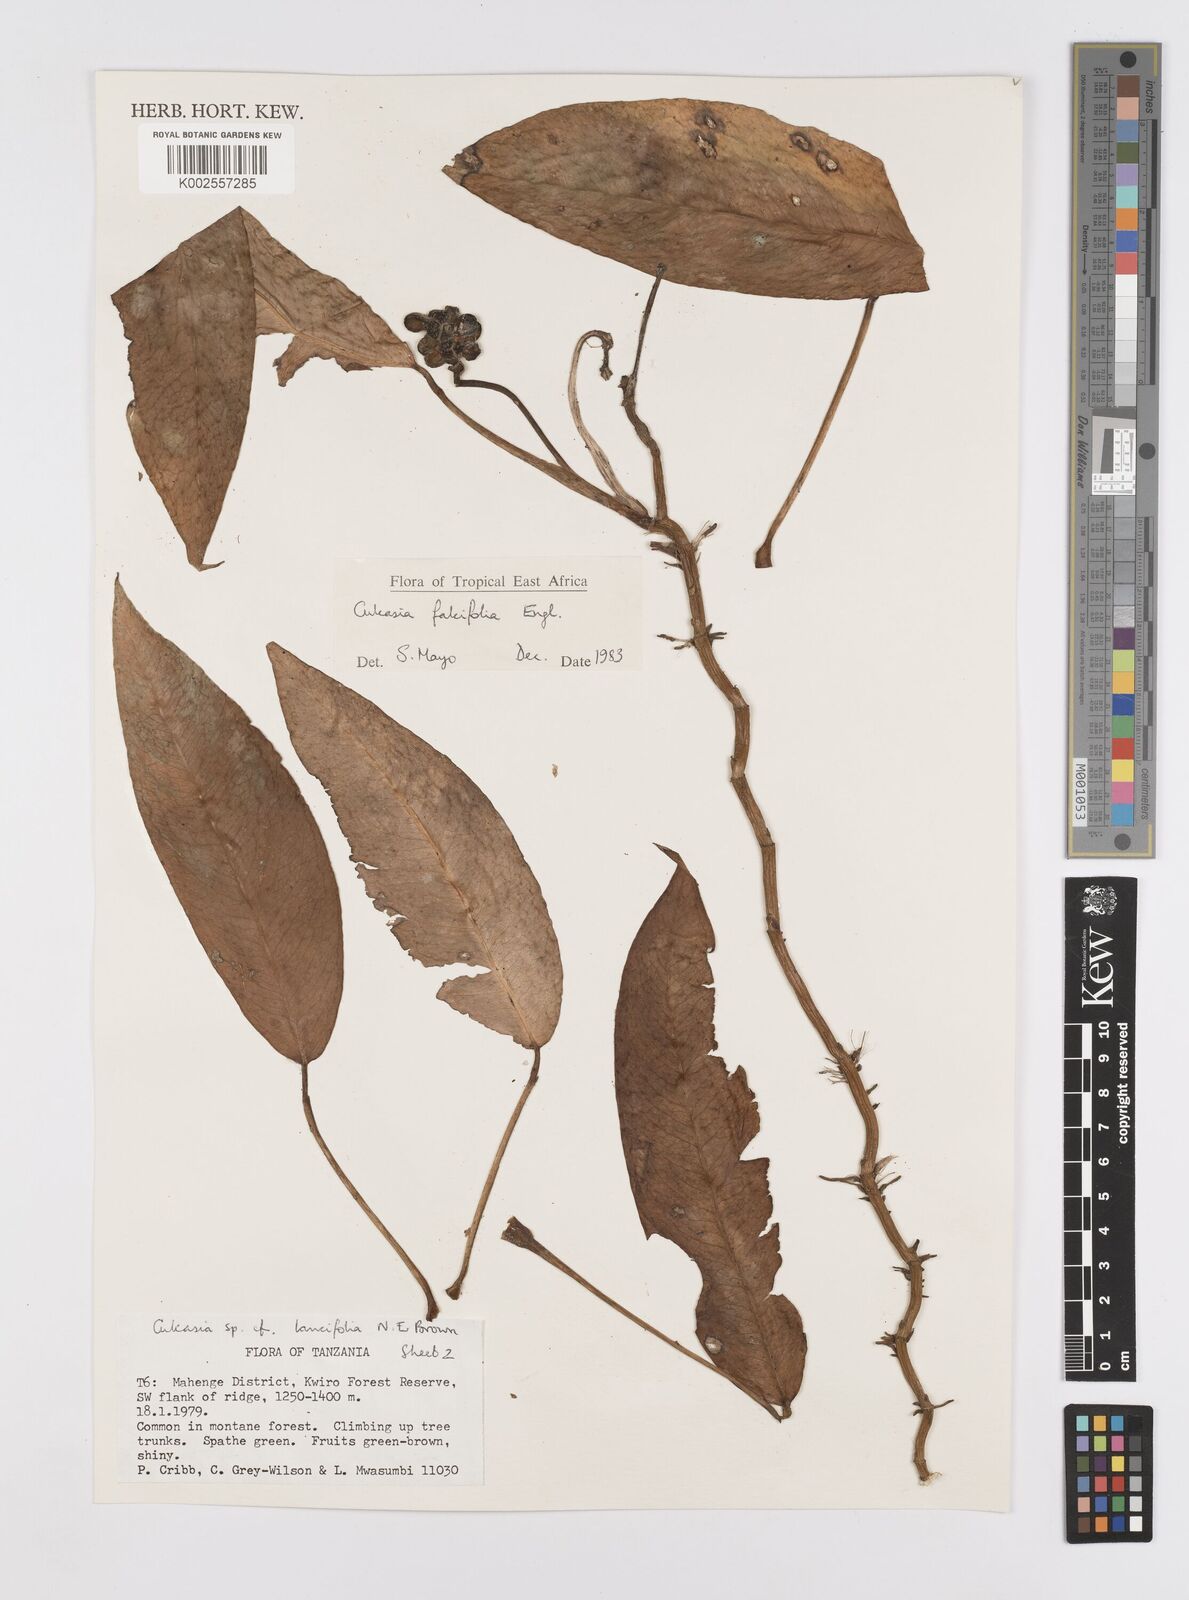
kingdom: Plantae
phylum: Tracheophyta
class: Liliopsida
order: Alismatales
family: Araceae
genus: Culcasia
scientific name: Culcasia falcifolia
